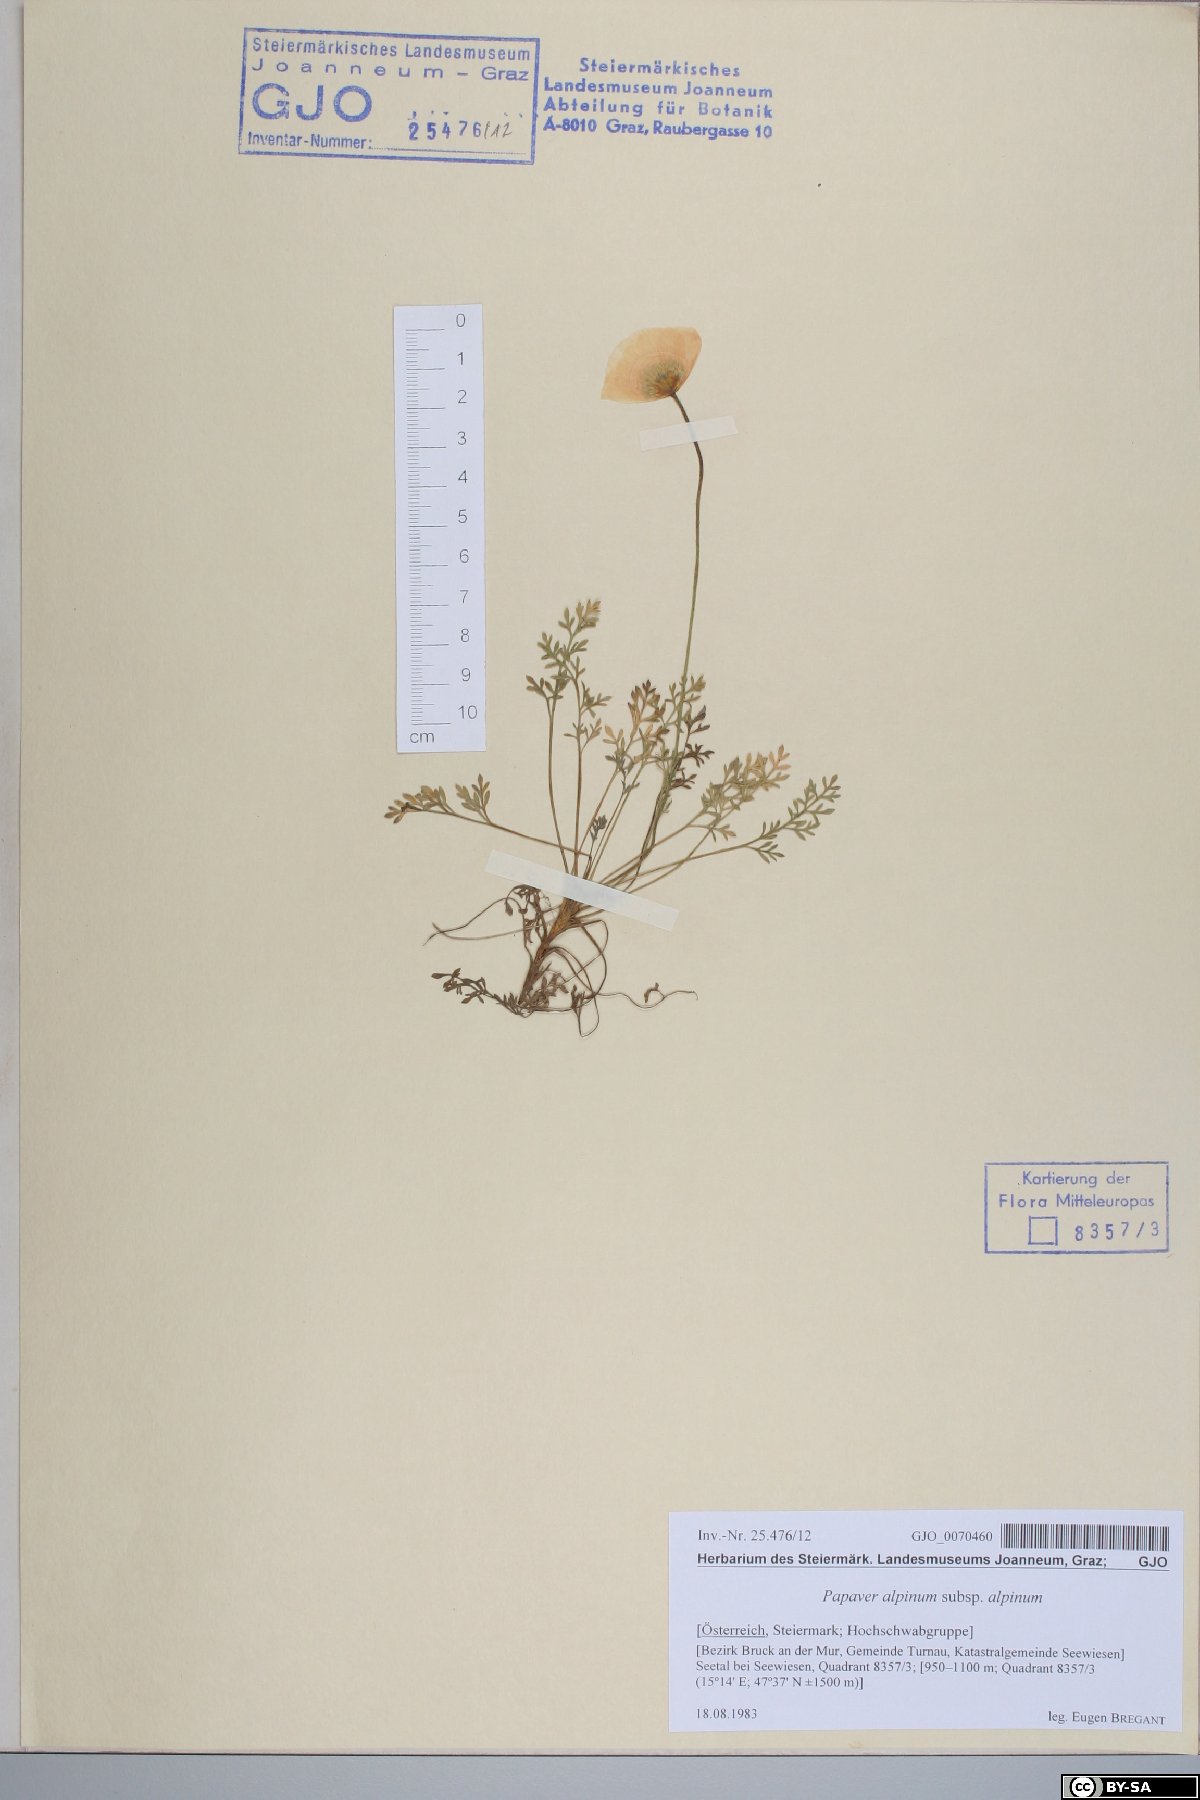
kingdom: Plantae
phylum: Tracheophyta
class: Magnoliopsida
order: Ranunculales
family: Papaveraceae
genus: Papaver
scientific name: Papaver alpinum
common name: Austrian poppy
